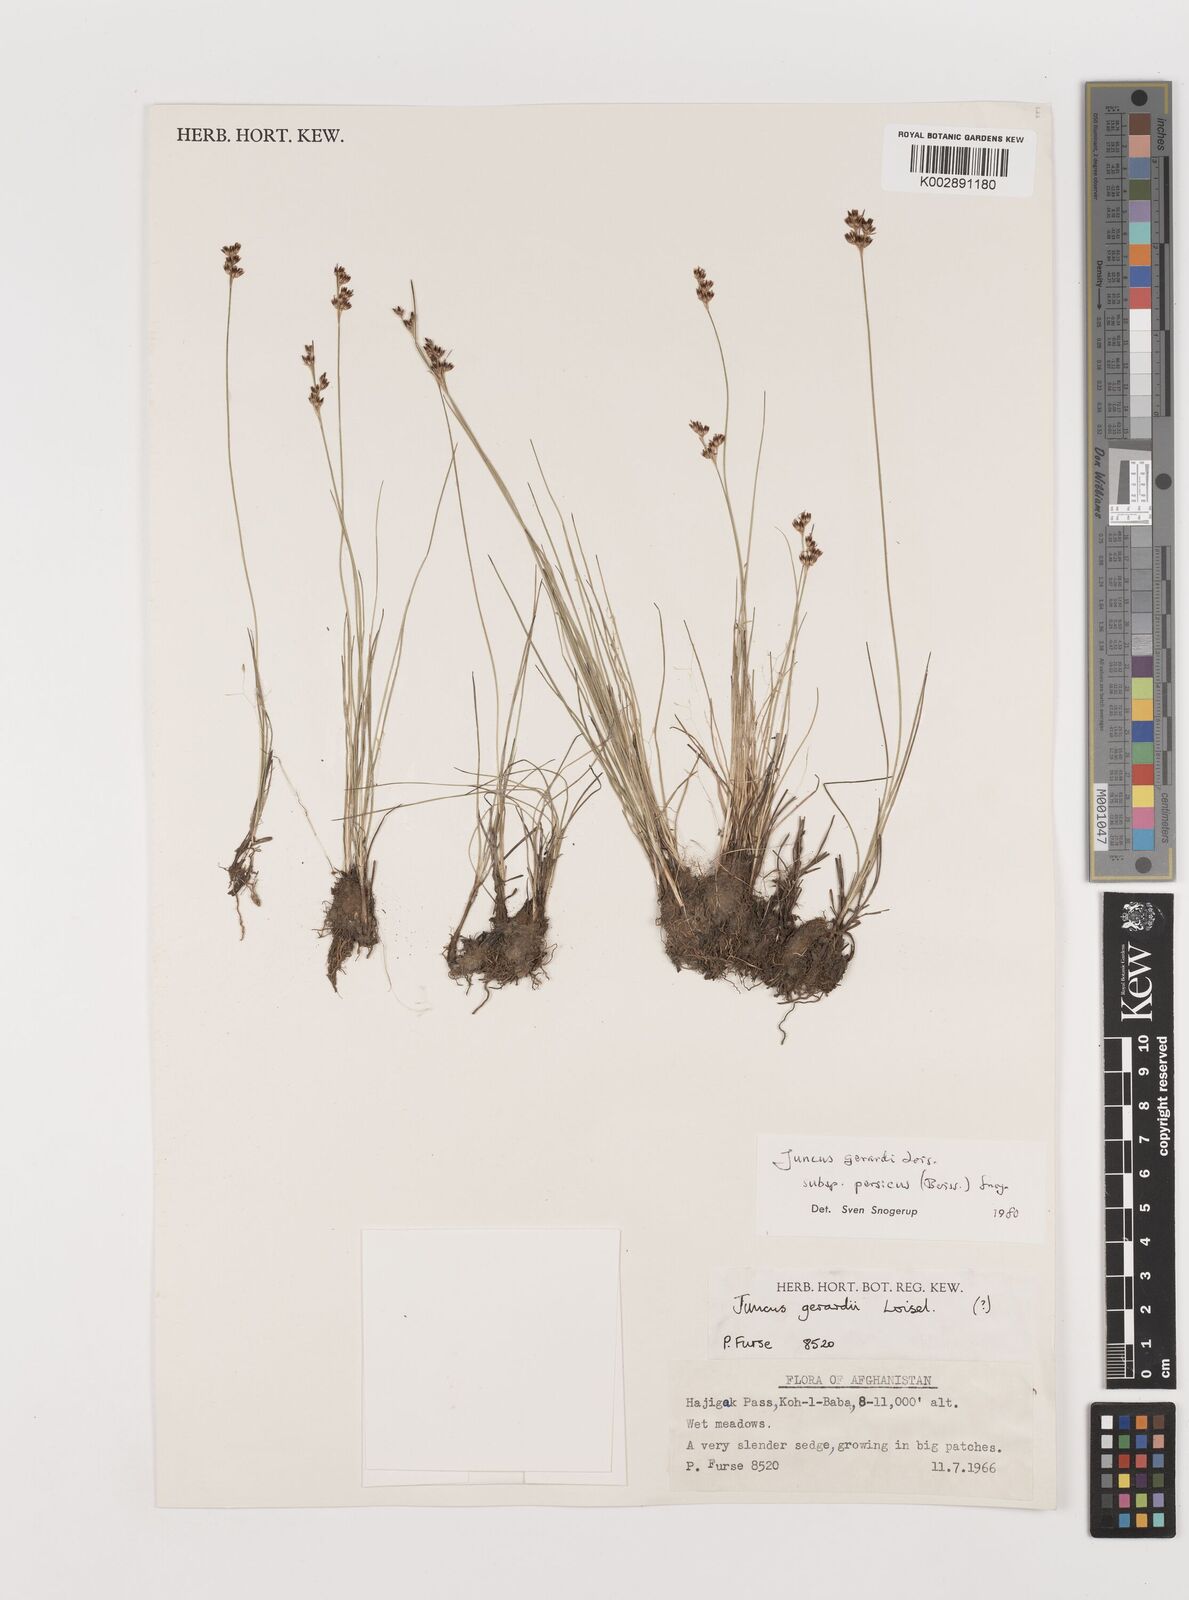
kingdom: Plantae
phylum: Tracheophyta
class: Liliopsida
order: Poales
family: Juncaceae
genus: Juncus
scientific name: Juncus persicus
